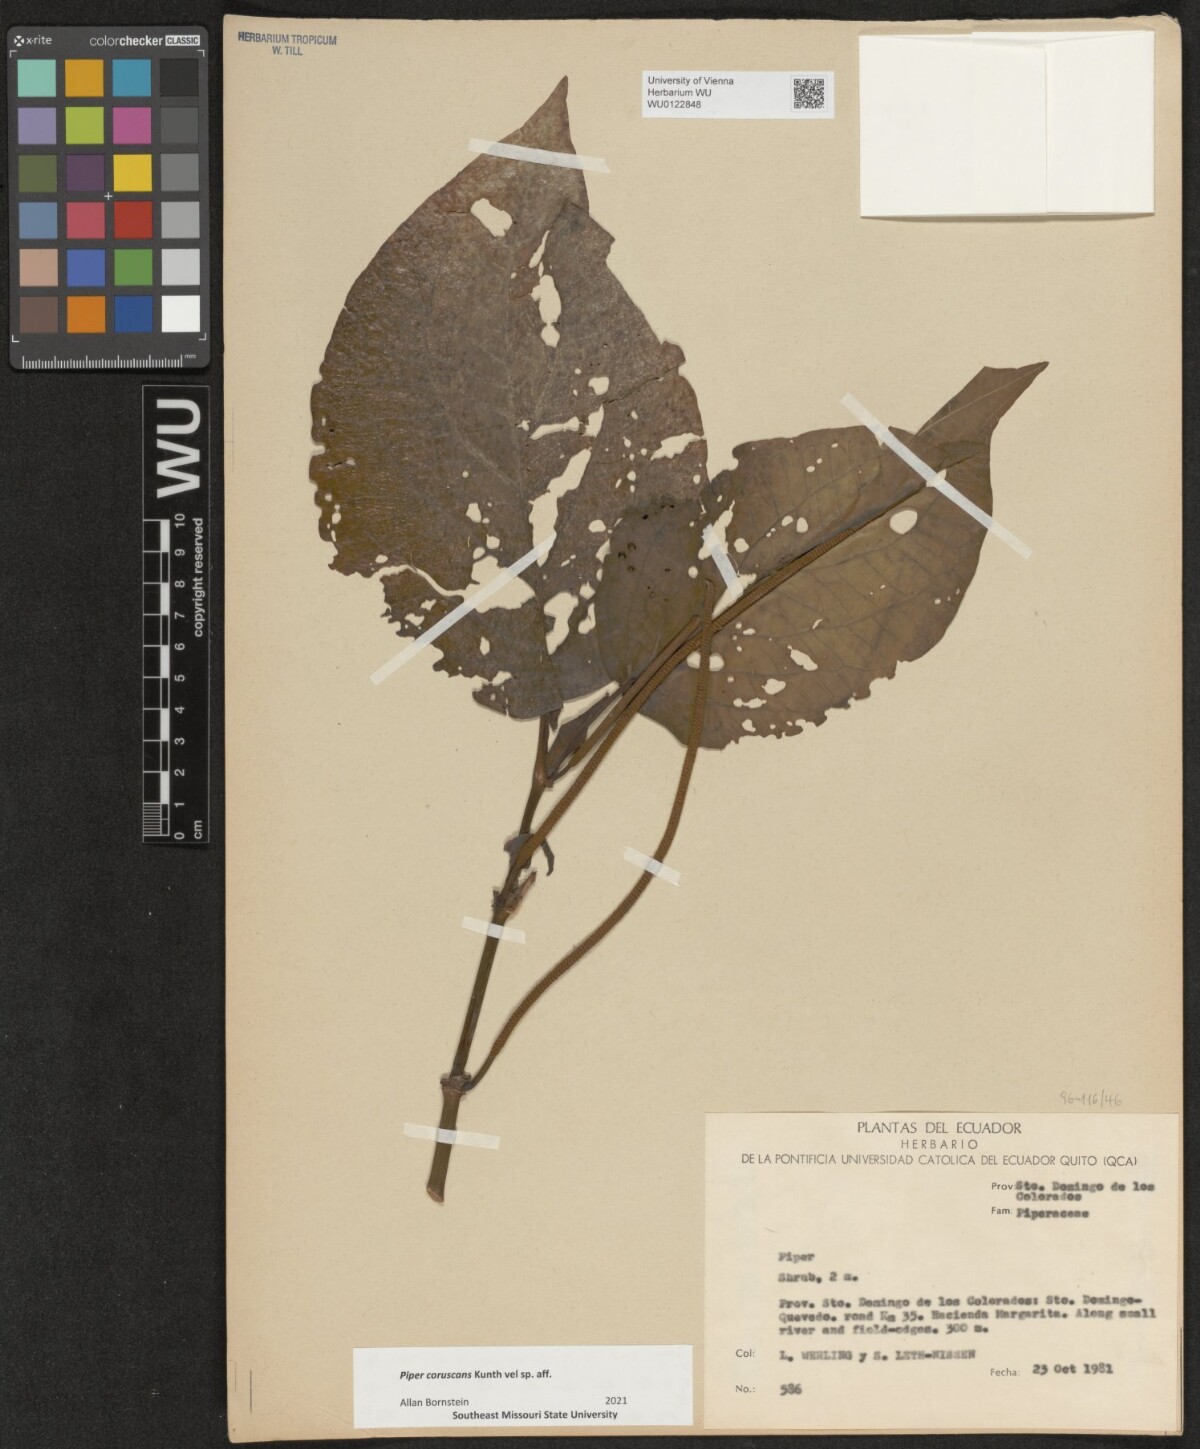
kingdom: Plantae
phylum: Tracheophyta
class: Magnoliopsida
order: Piperales
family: Piperaceae
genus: Piper
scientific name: Piper coruscans
